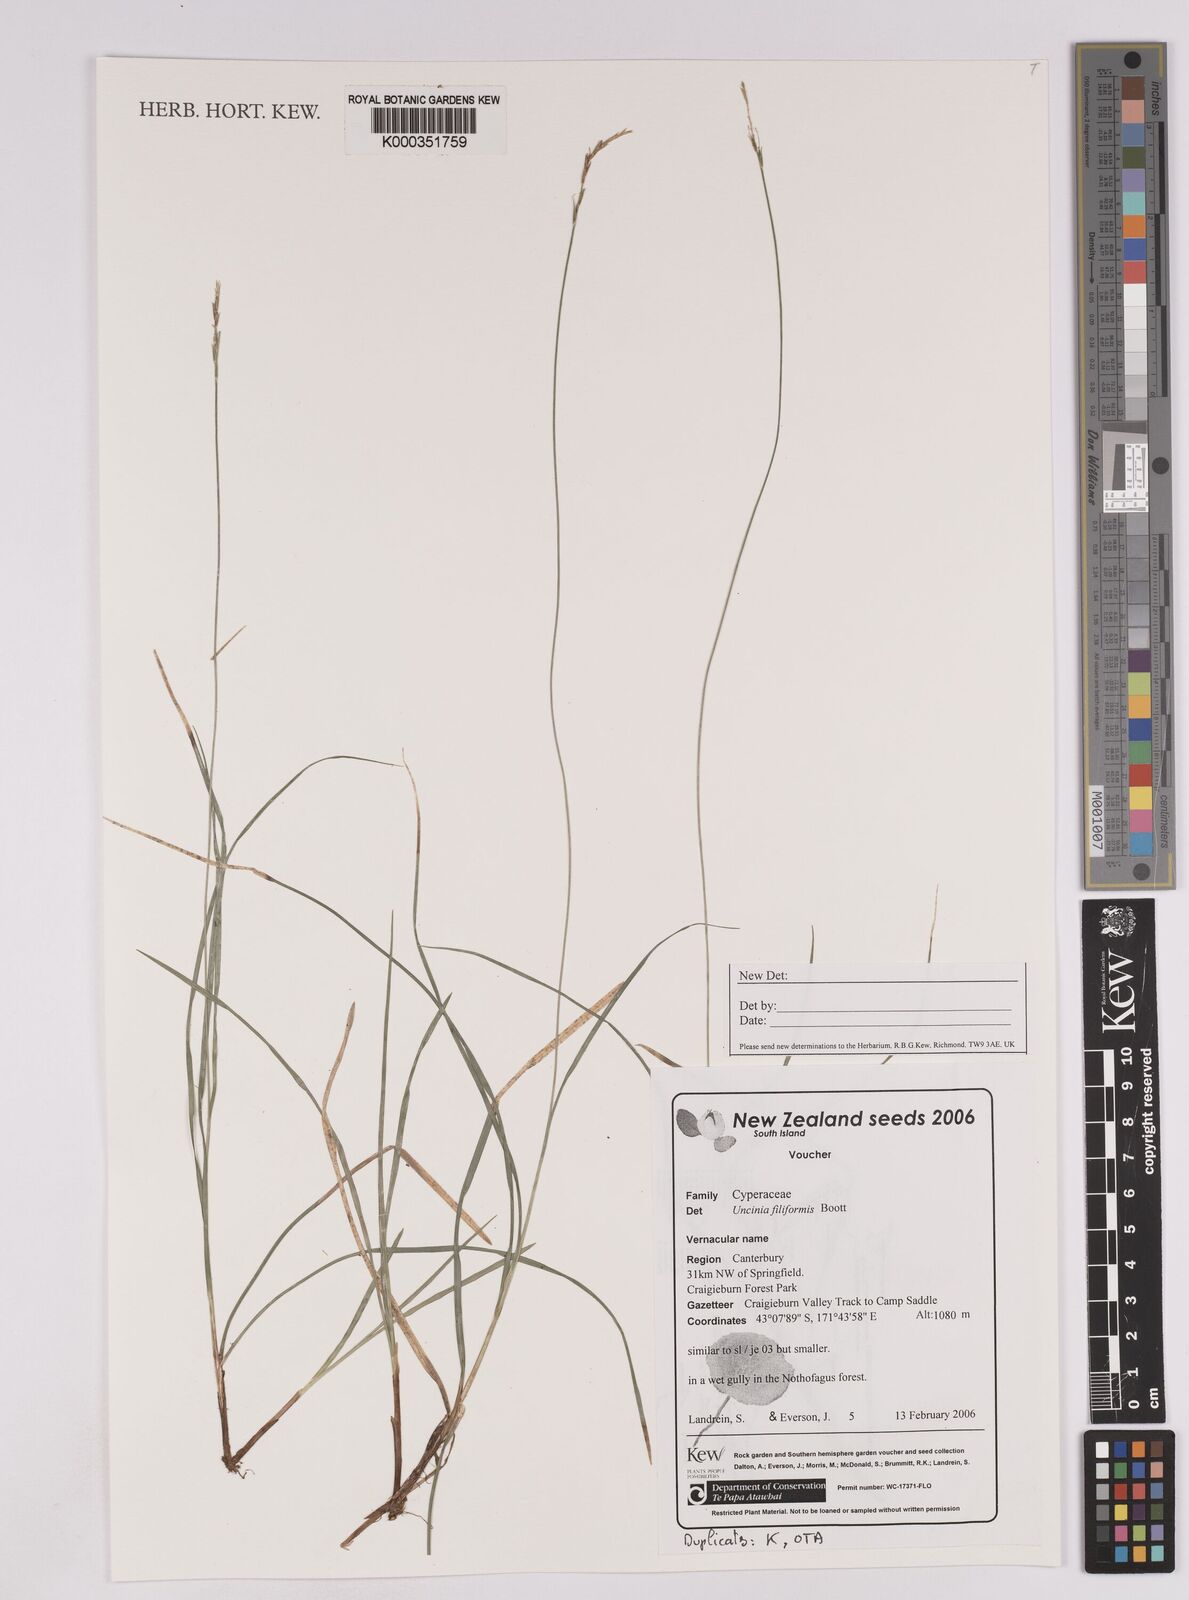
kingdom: Plantae
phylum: Tracheophyta
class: Liliopsida
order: Poales
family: Cyperaceae
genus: Carex
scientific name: Carex lectissima
